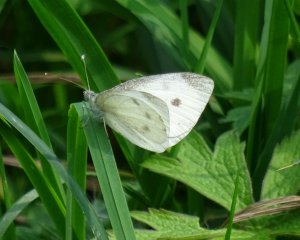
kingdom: Animalia
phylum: Arthropoda
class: Insecta
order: Lepidoptera
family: Pieridae
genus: Pieris
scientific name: Pieris rapae
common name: Cabbage White
